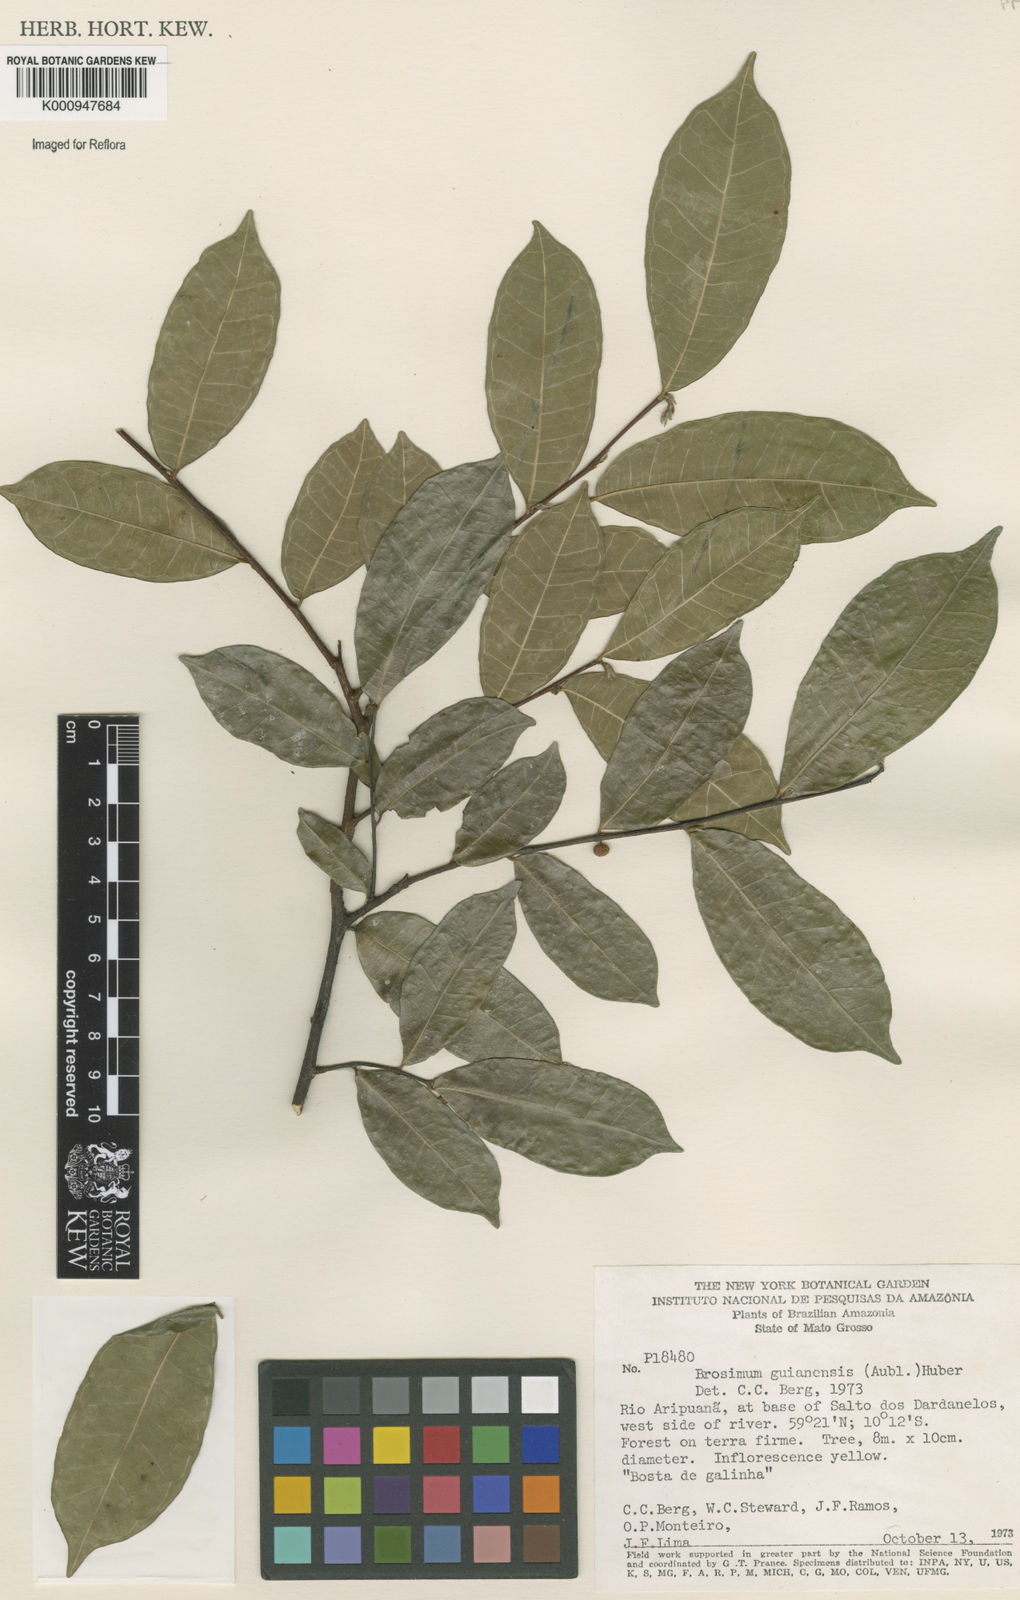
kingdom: Plantae
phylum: Tracheophyta
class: Magnoliopsida
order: Rosales
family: Moraceae
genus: Brosimum
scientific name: Brosimum
